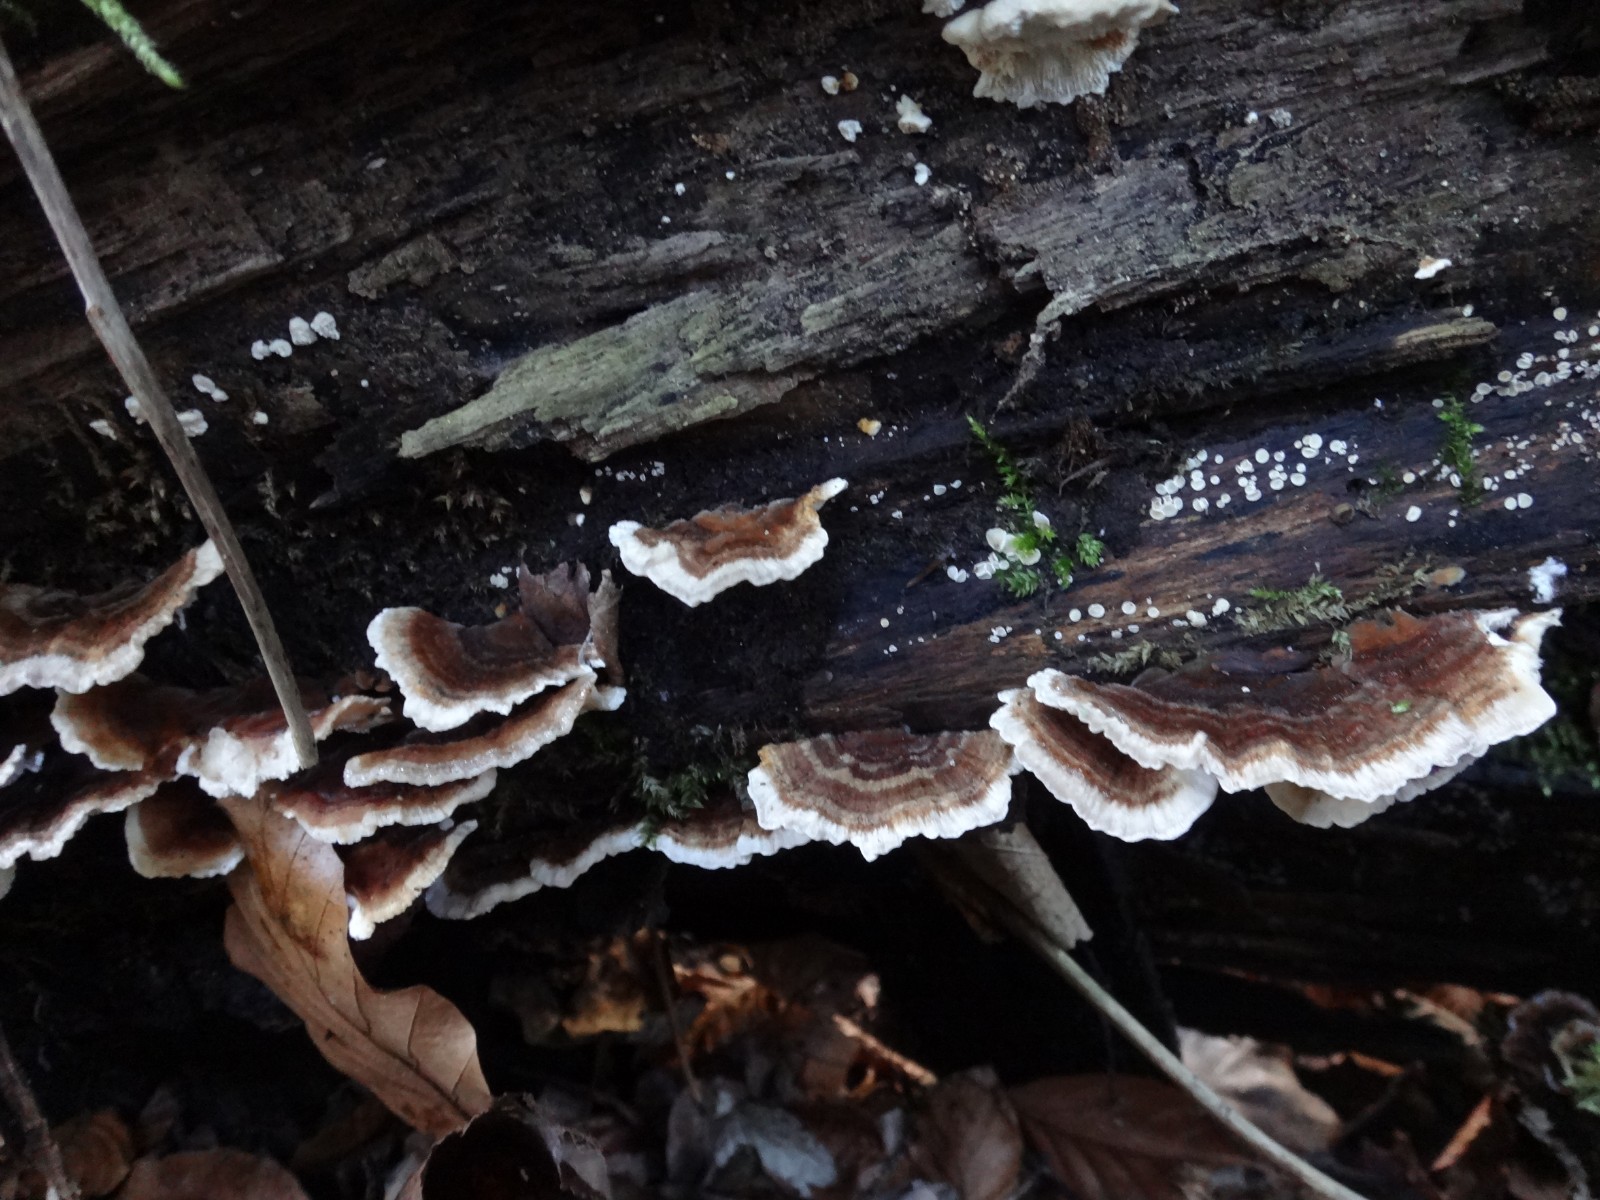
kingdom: Fungi
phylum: Basidiomycota
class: Agaricomycetes
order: Polyporales
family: Polyporaceae
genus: Trametes
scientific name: Trametes versicolor
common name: broget læderporesvamp
